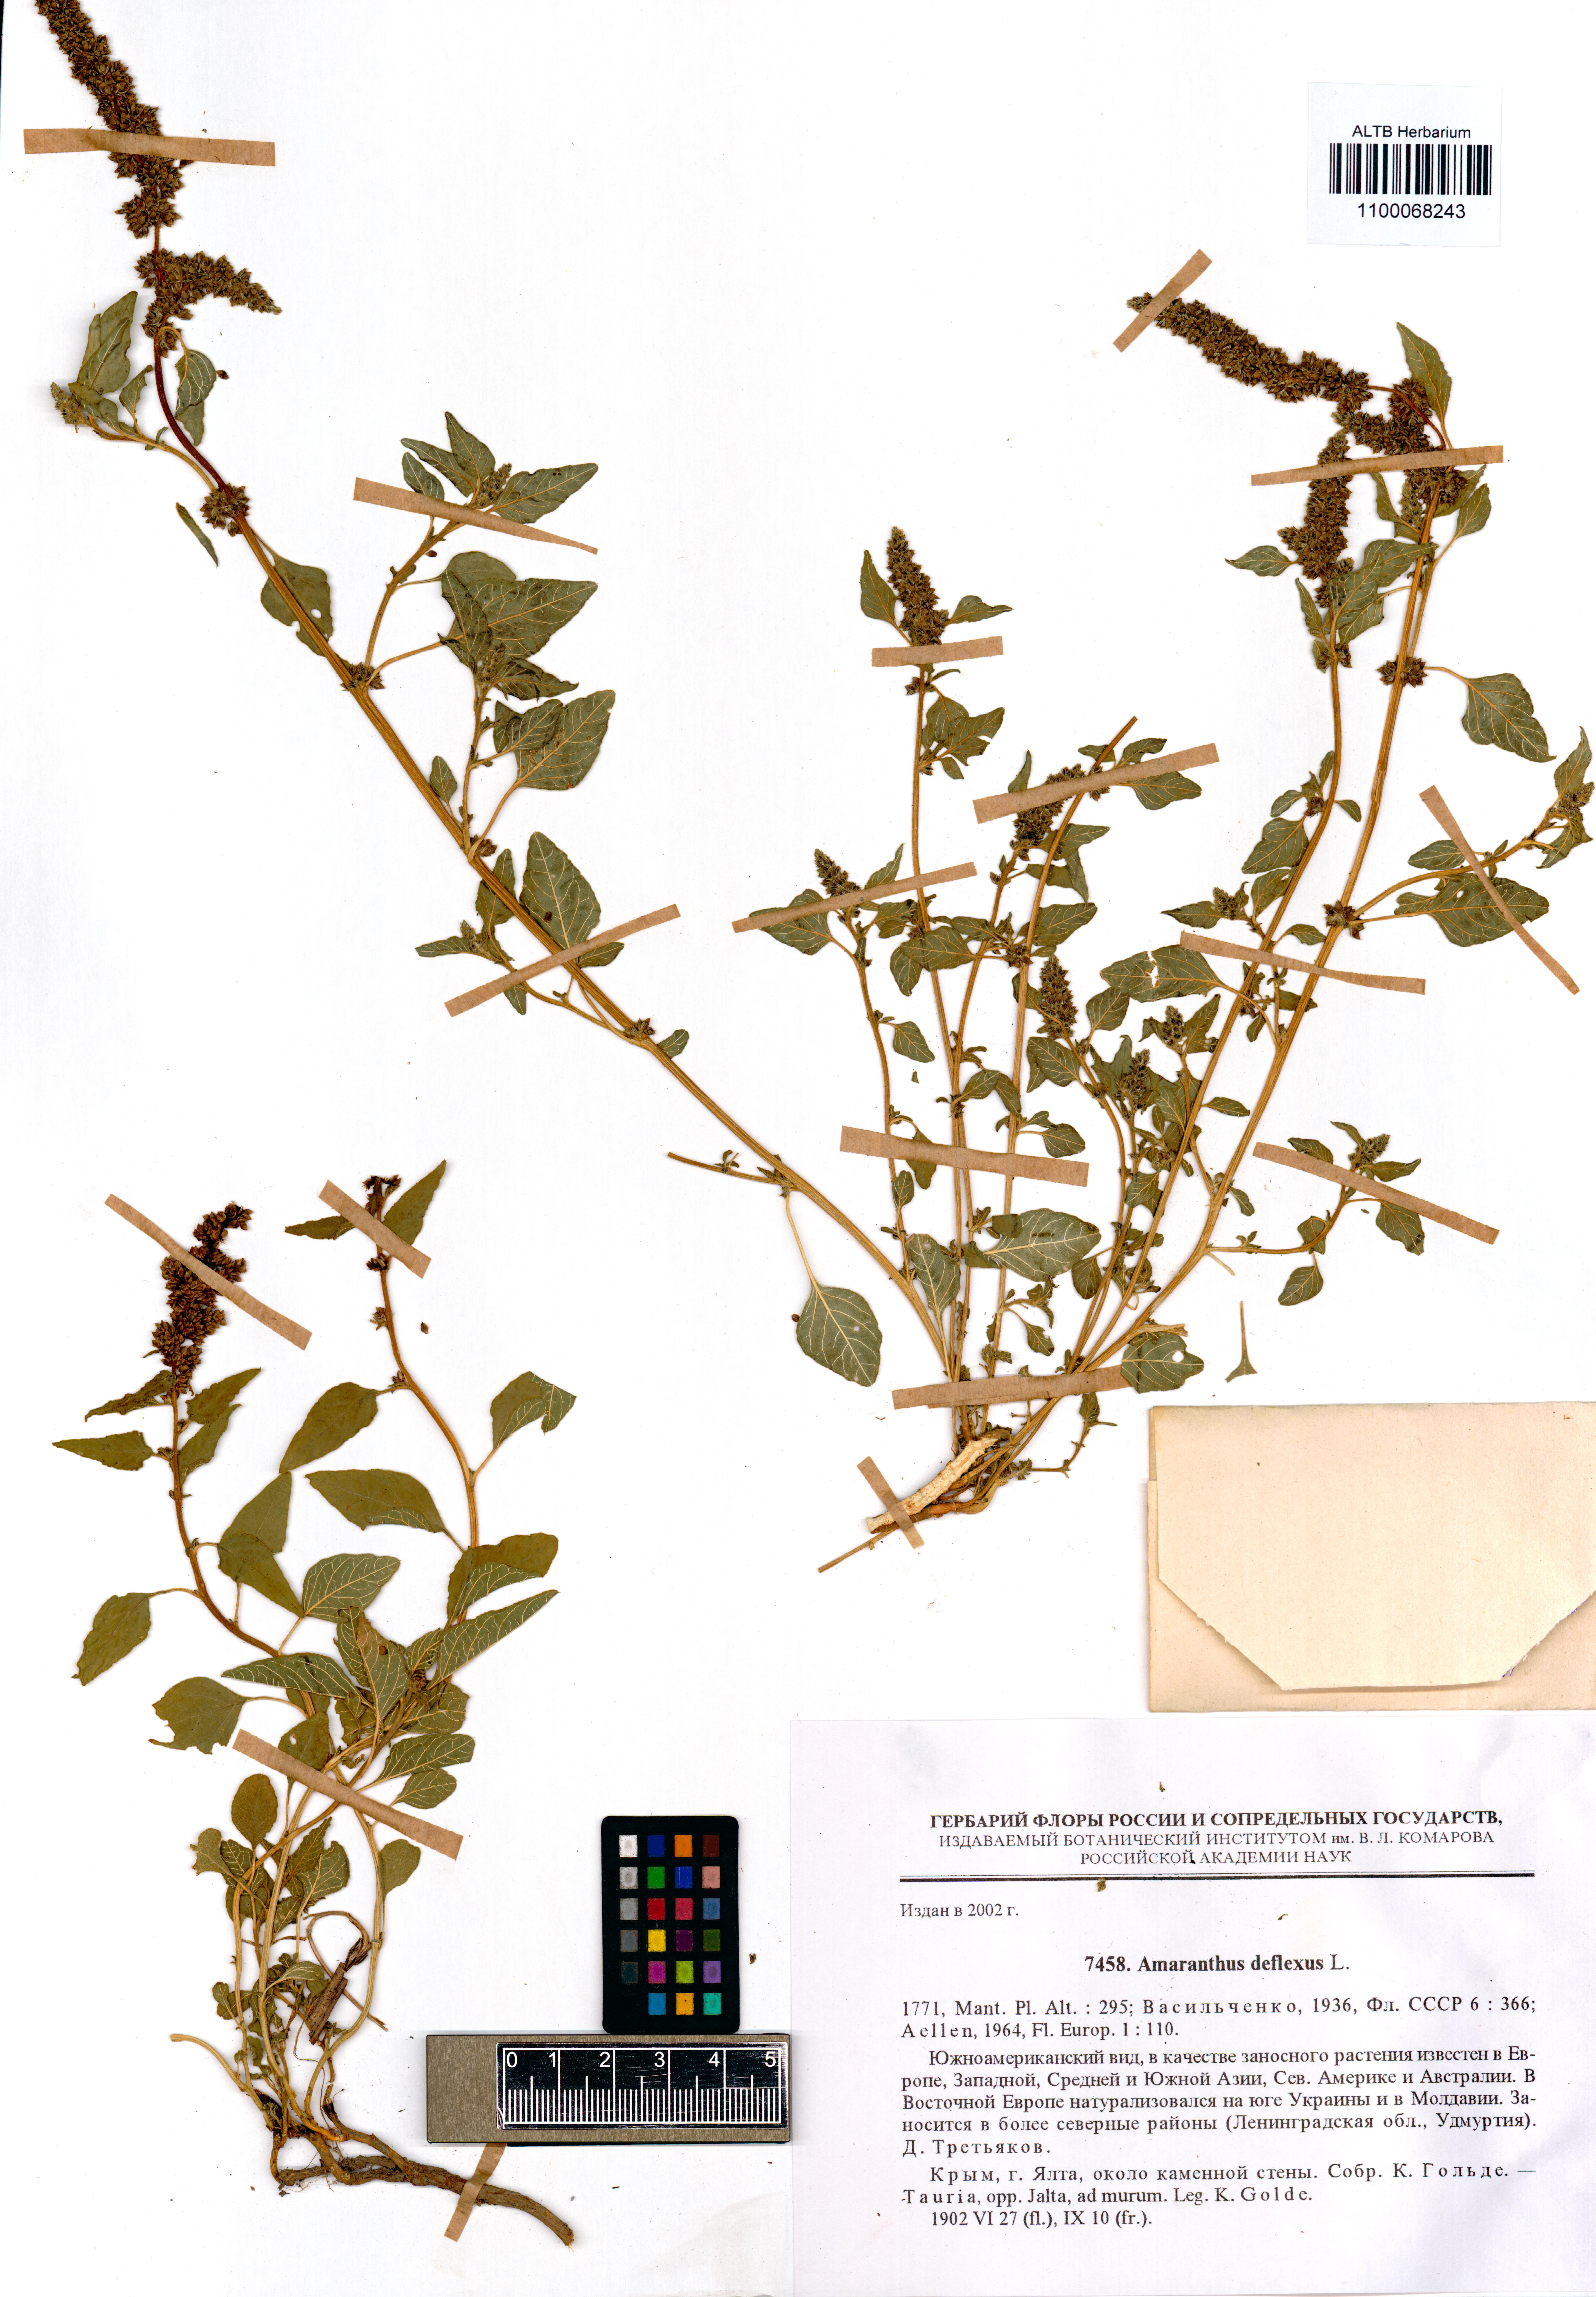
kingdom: Plantae
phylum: Tracheophyta
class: Magnoliopsida
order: Caryophyllales
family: Amaranthaceae
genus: Amaranthus
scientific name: Amaranthus deflexus
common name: Perennial pigweed
